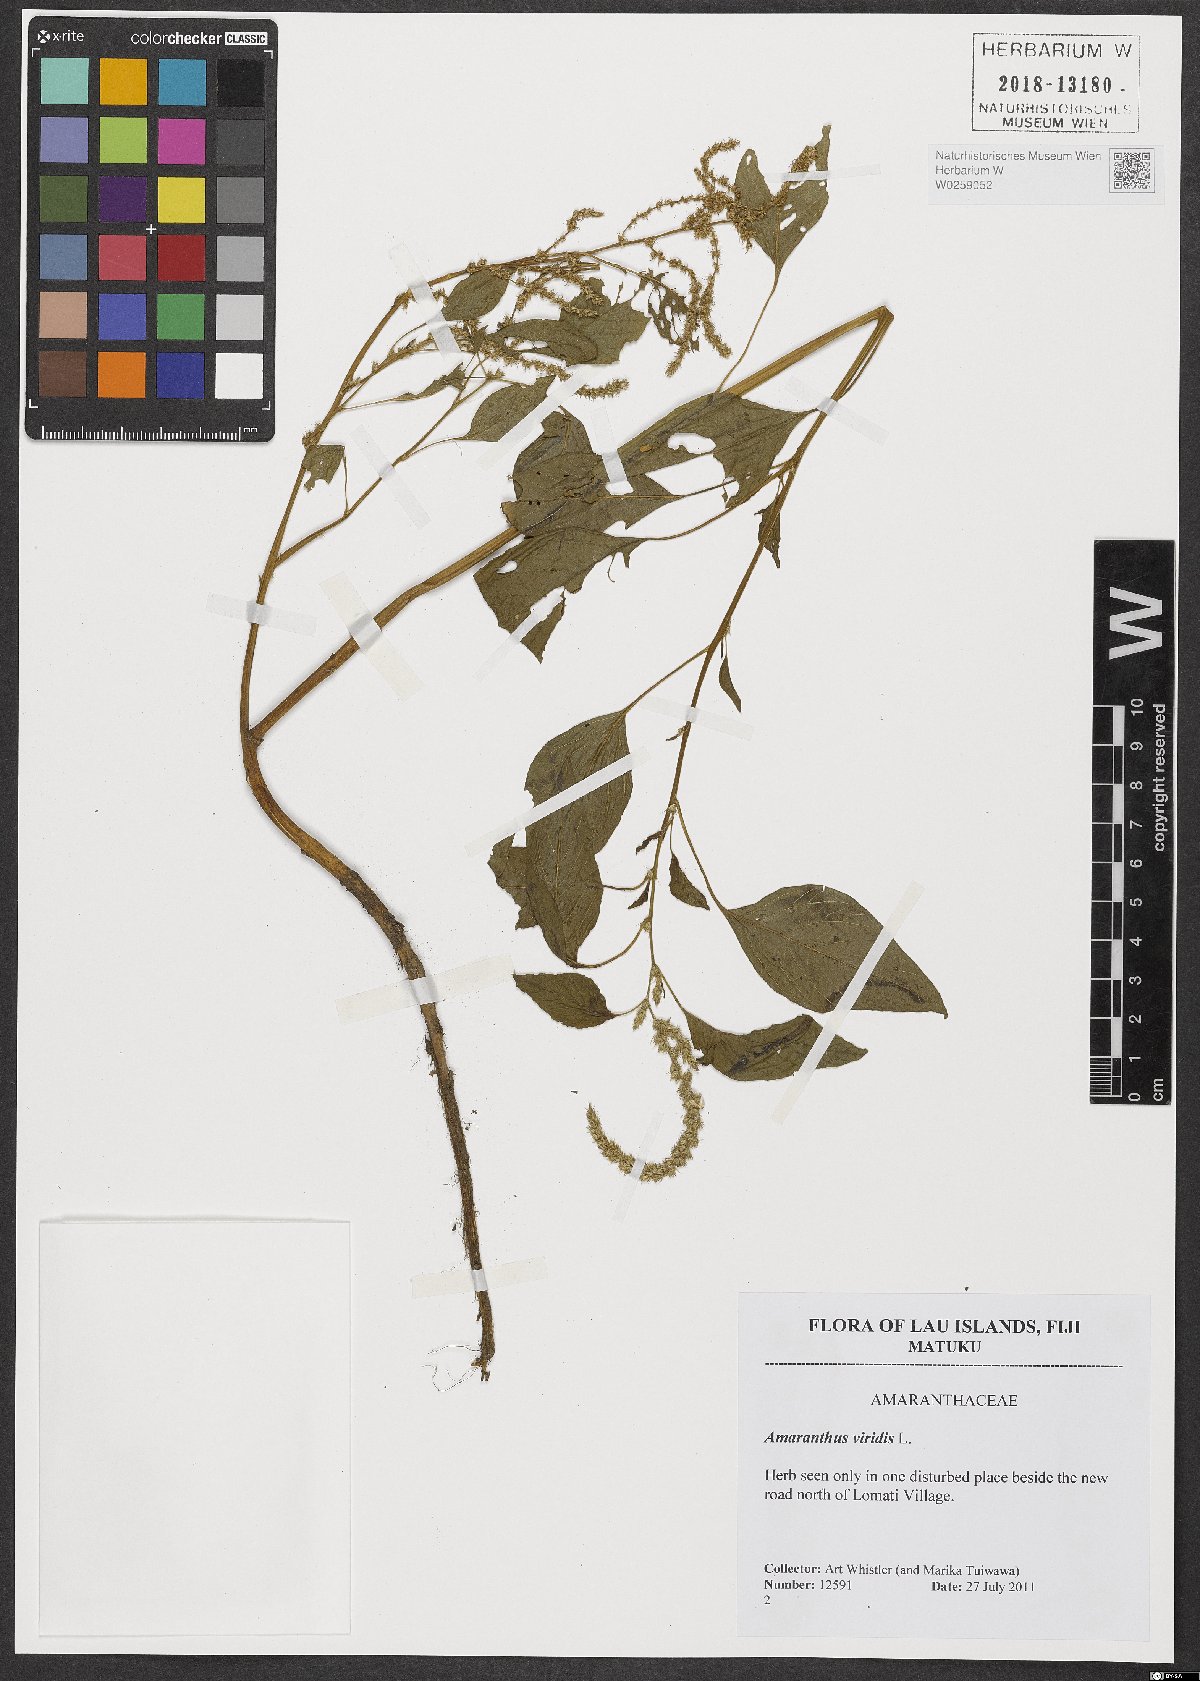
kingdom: Plantae
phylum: Tracheophyta
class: Magnoliopsida
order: Caryophyllales
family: Amaranthaceae
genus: Amaranthus
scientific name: Amaranthus viridis
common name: Slender amaranth
